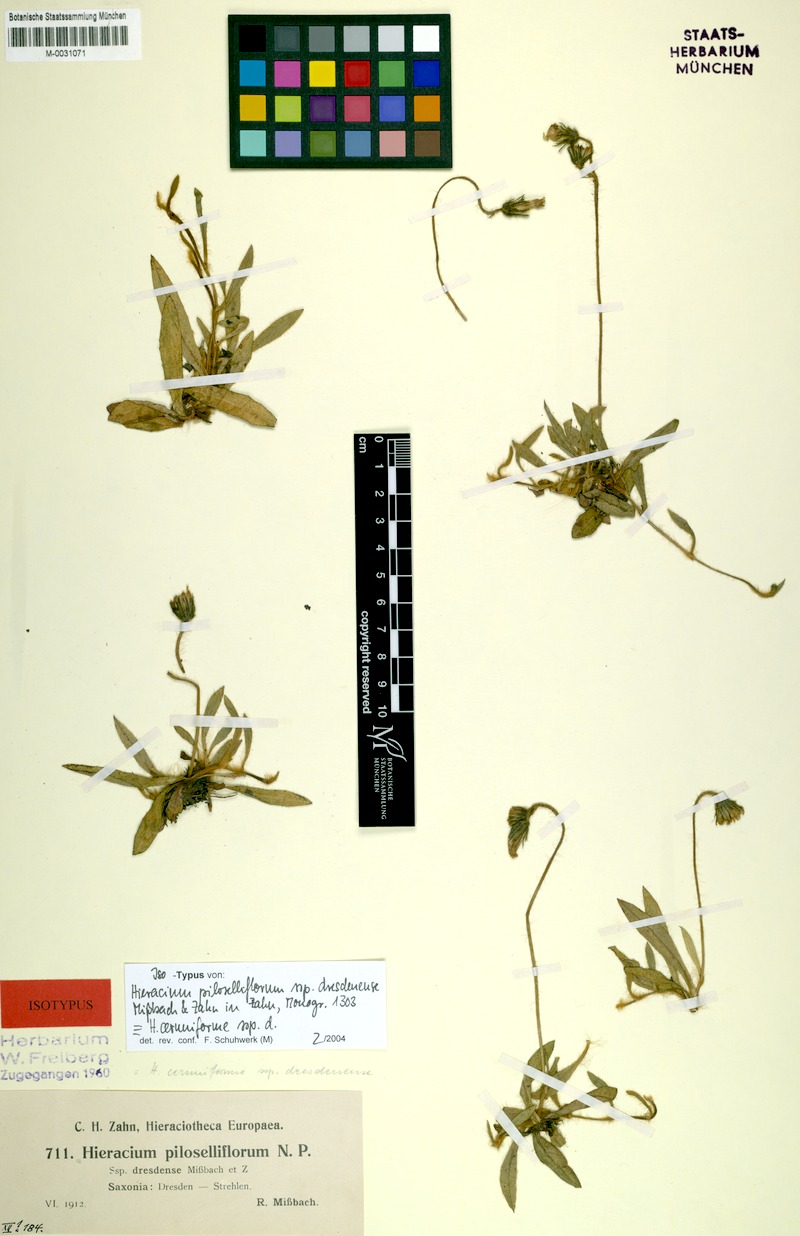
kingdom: Plantae
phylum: Tracheophyta
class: Magnoliopsida
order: Asterales
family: Asteraceae
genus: Pilosella
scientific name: Pilosella piloselliflora
